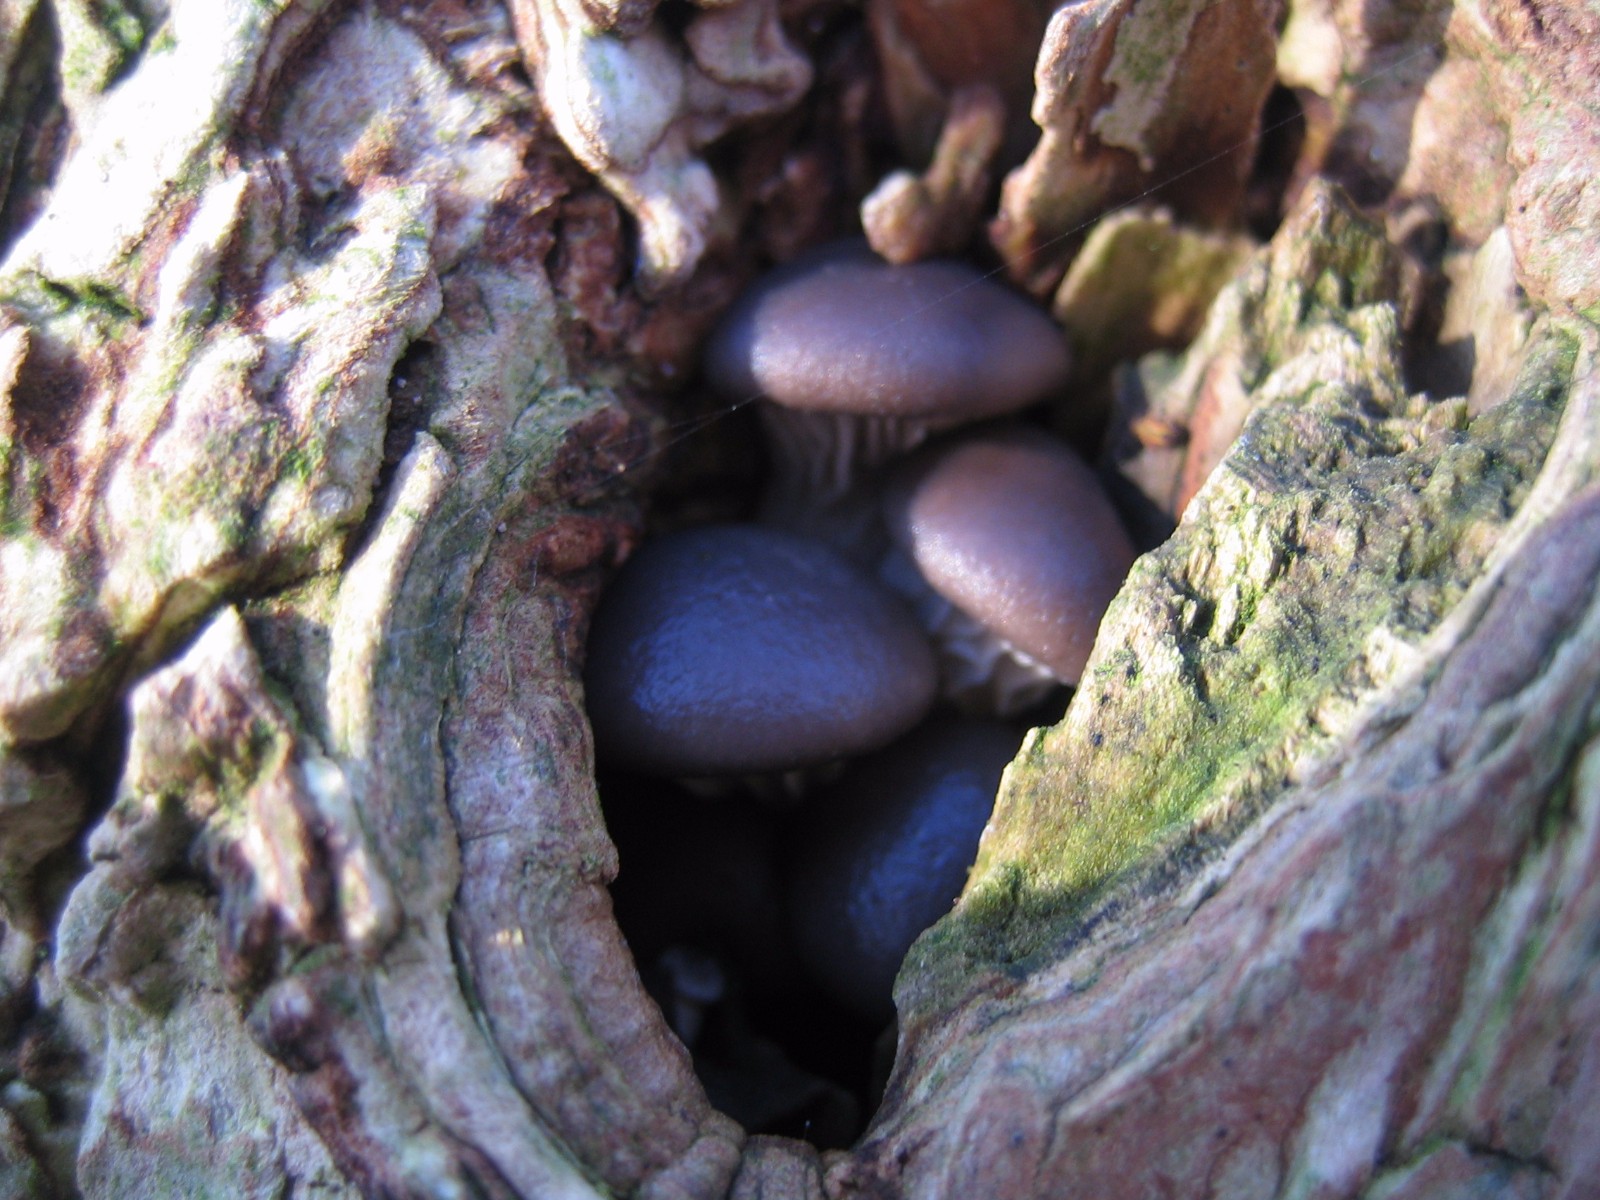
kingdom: Fungi
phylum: Basidiomycota
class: Agaricomycetes
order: Agaricales
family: Pleurotaceae
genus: Pleurotus
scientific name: Pleurotus ostreatus
